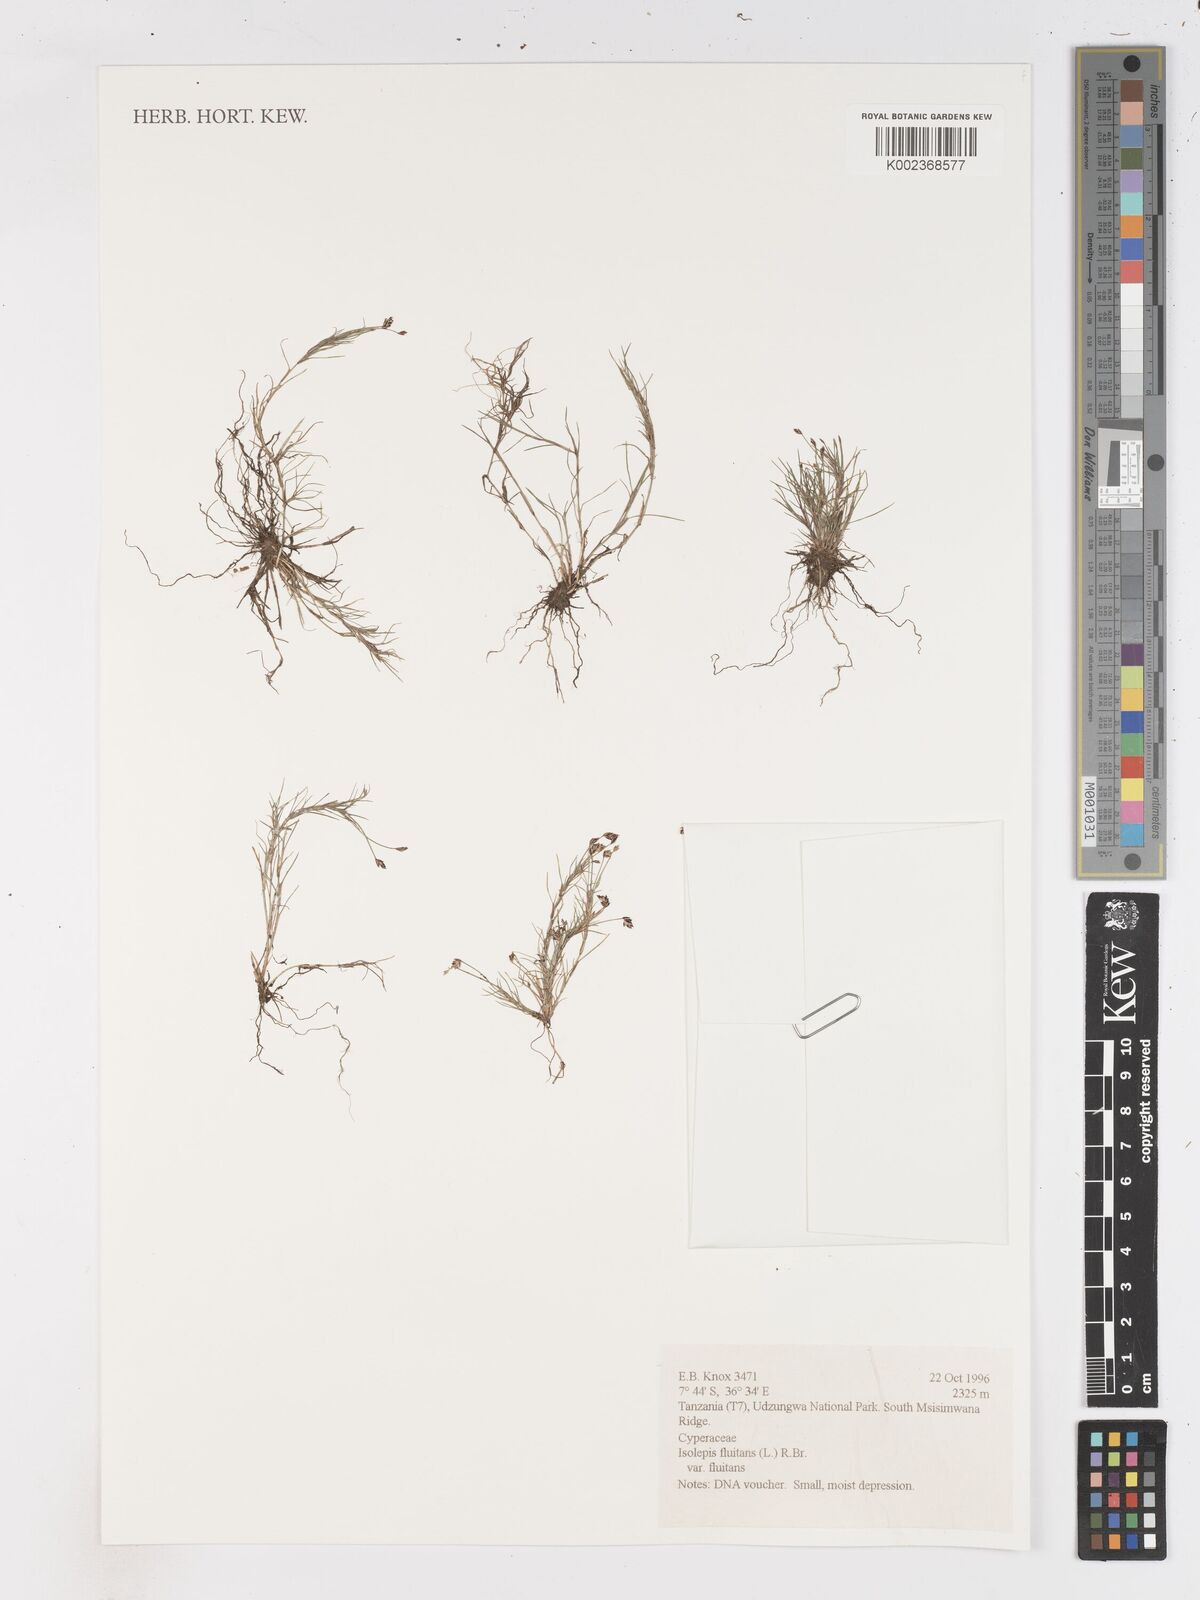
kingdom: Plantae
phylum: Tracheophyta
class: Liliopsida
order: Poales
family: Cyperaceae
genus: Isolepis
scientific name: Isolepis fluitans
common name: Floating club-rush
